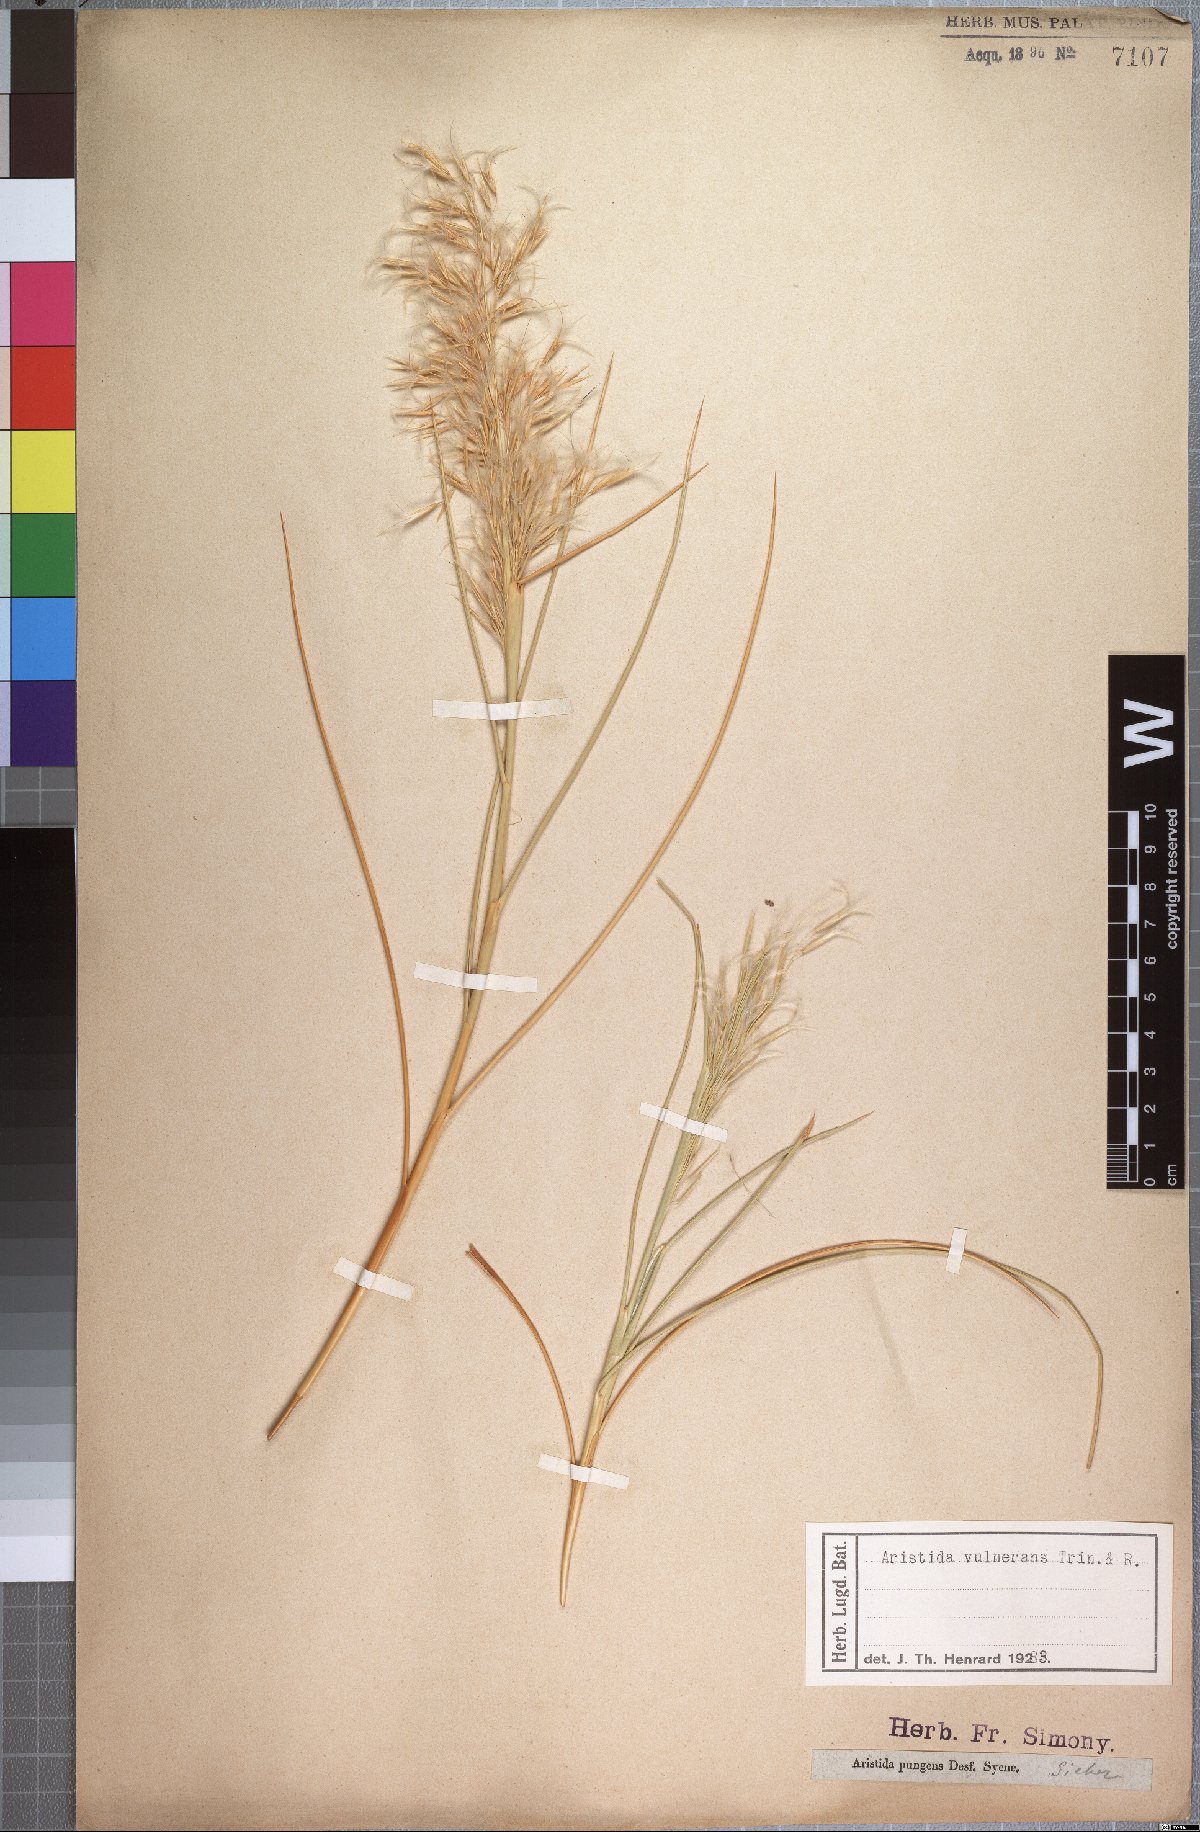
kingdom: Plantae
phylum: Tracheophyta
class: Liliopsida
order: Poales
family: Poaceae
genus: Stipagrostis
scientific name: Stipagrostis vulnerans
